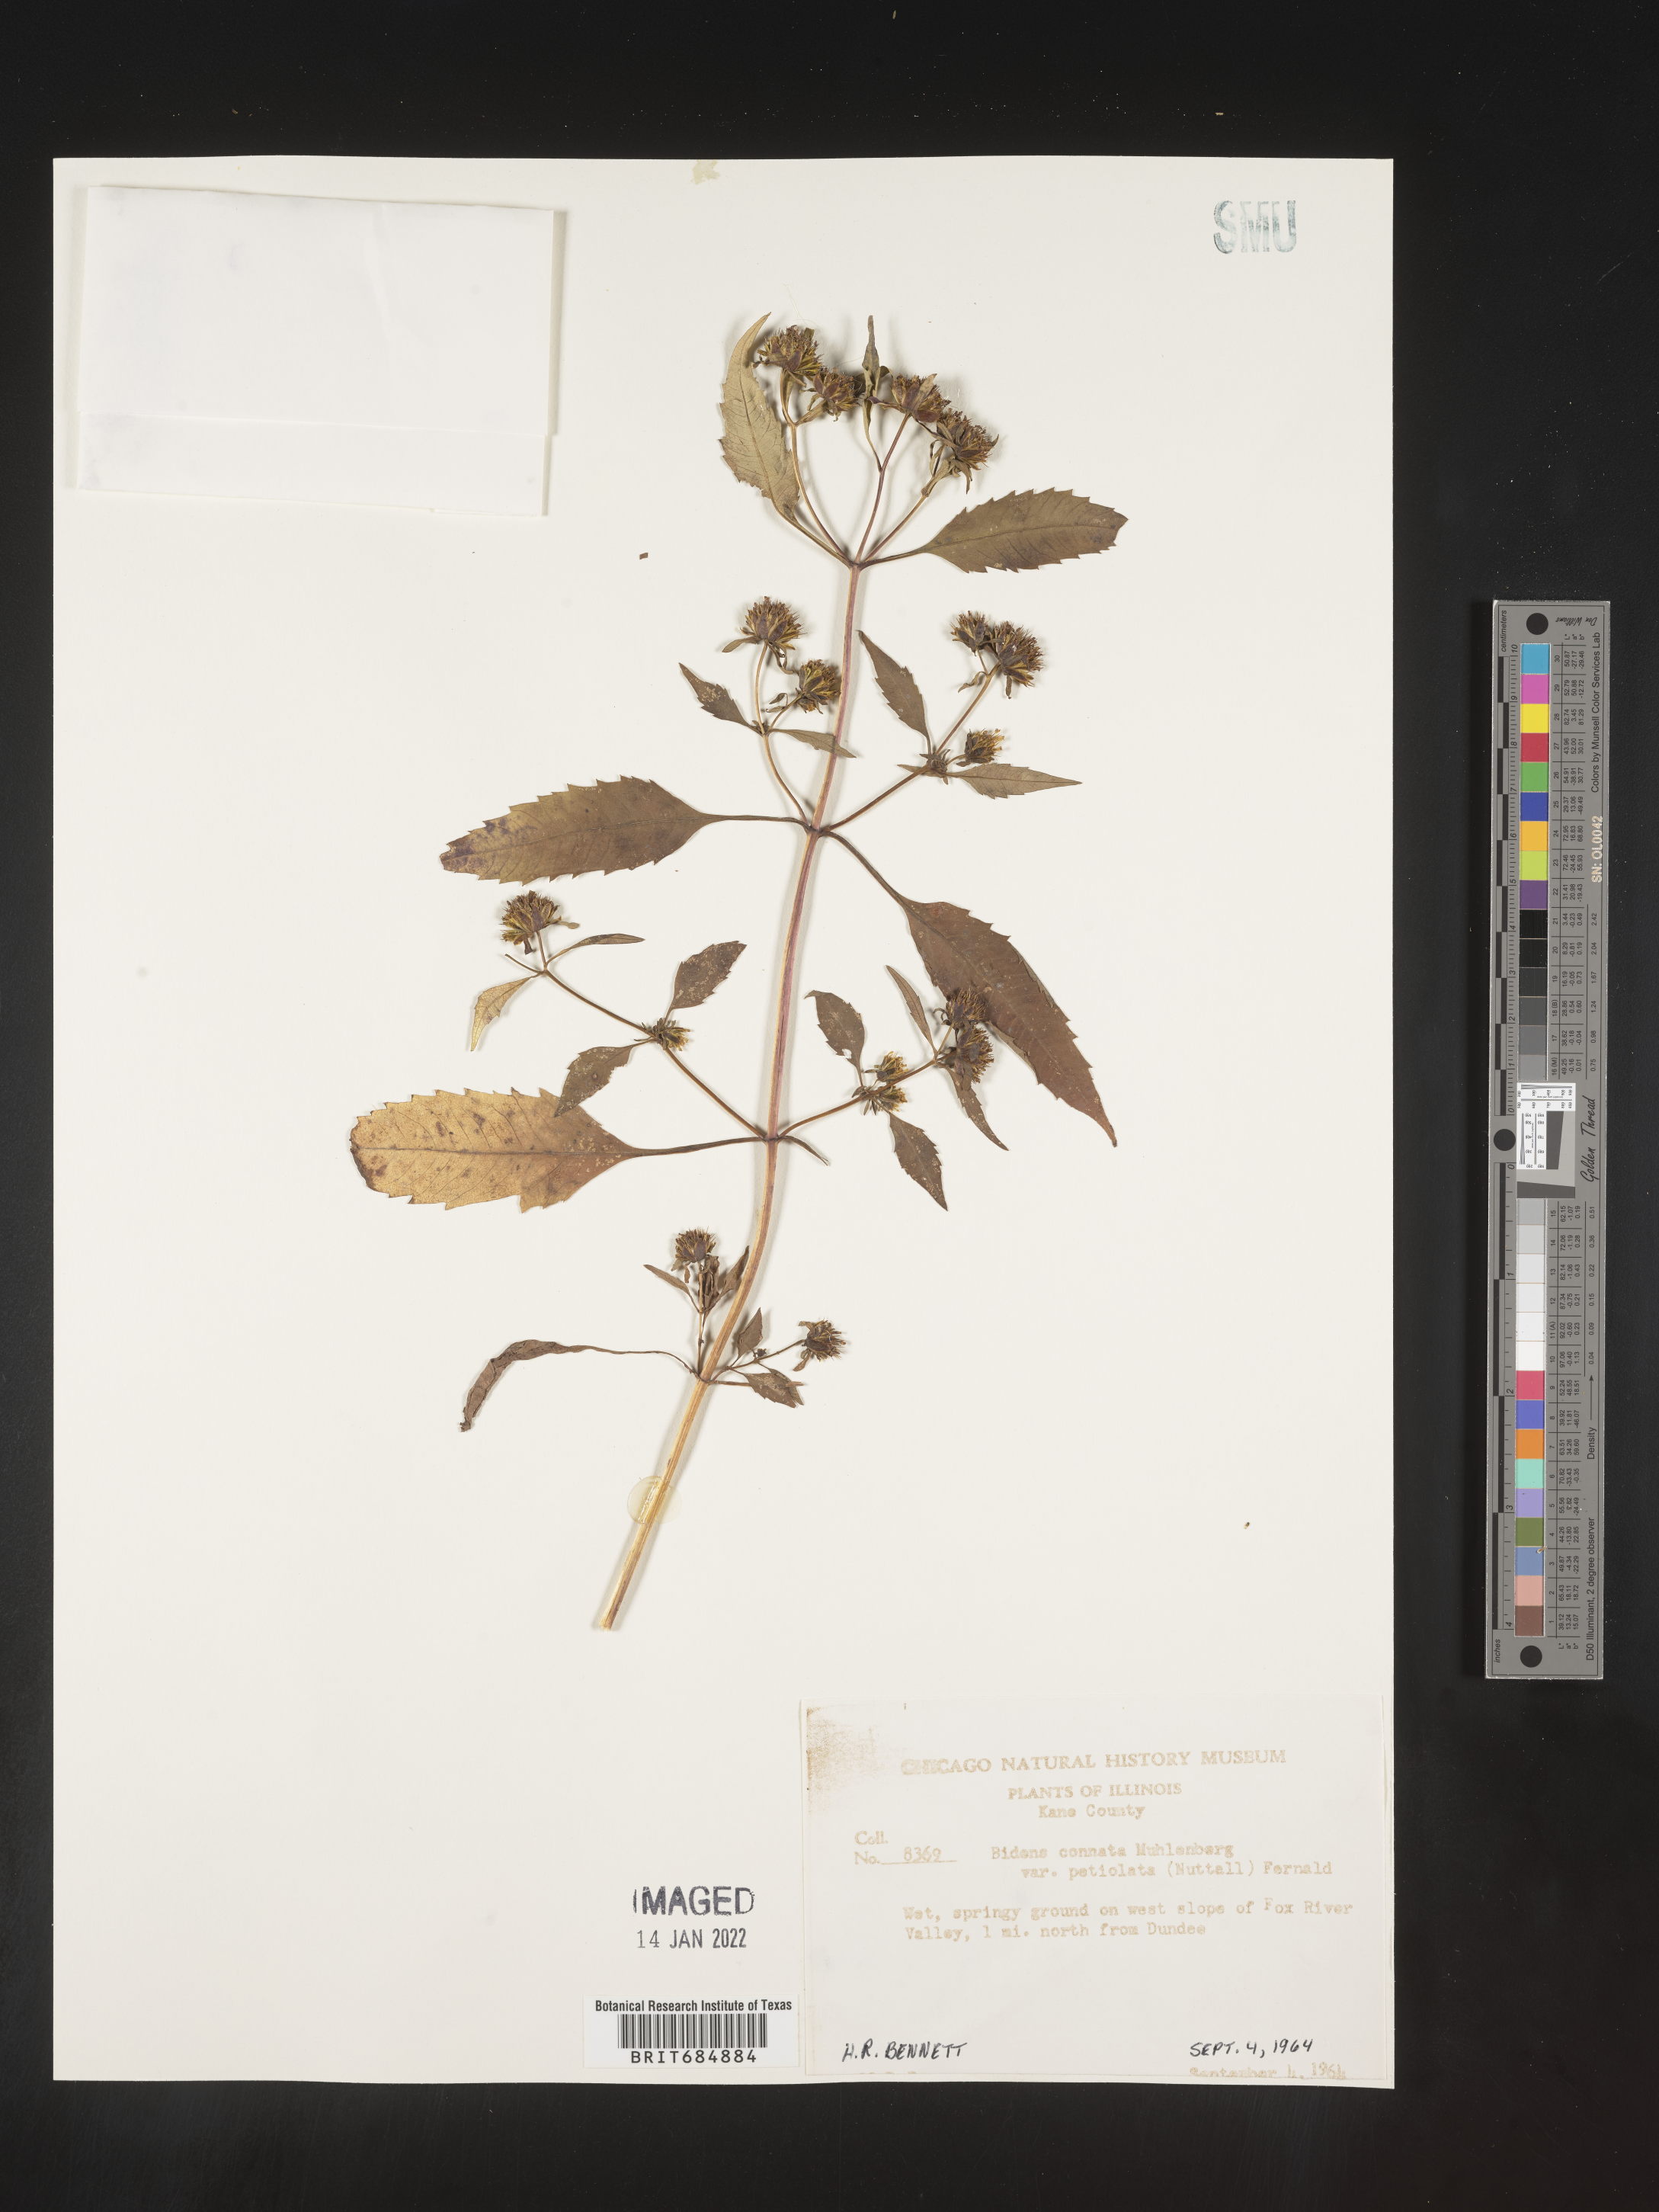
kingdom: Plantae
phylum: Tracheophyta
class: Magnoliopsida
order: Asterales
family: Asteraceae
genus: Bidens
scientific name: Bidens tripartita
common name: Trifid bur-marigold
